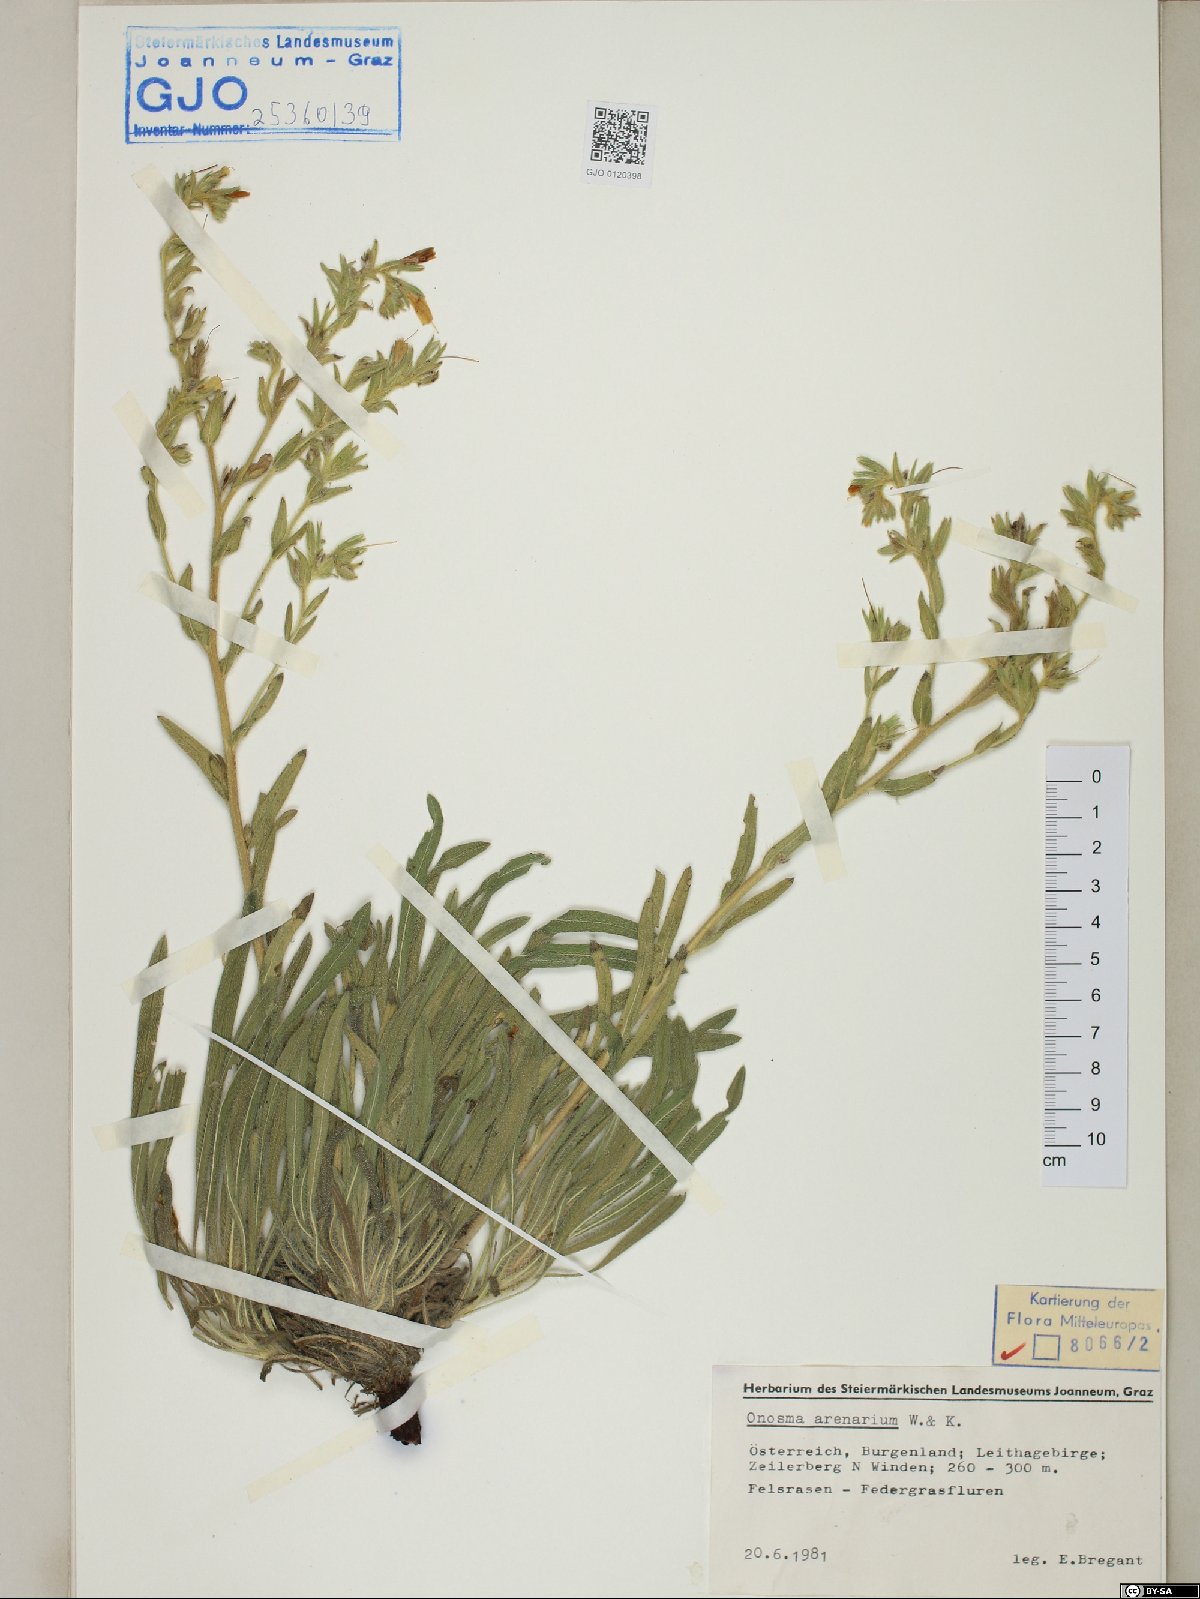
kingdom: Plantae
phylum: Tracheophyta
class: Magnoliopsida
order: Boraginales
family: Boraginaceae
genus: Onosma
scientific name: Onosma arenaria
